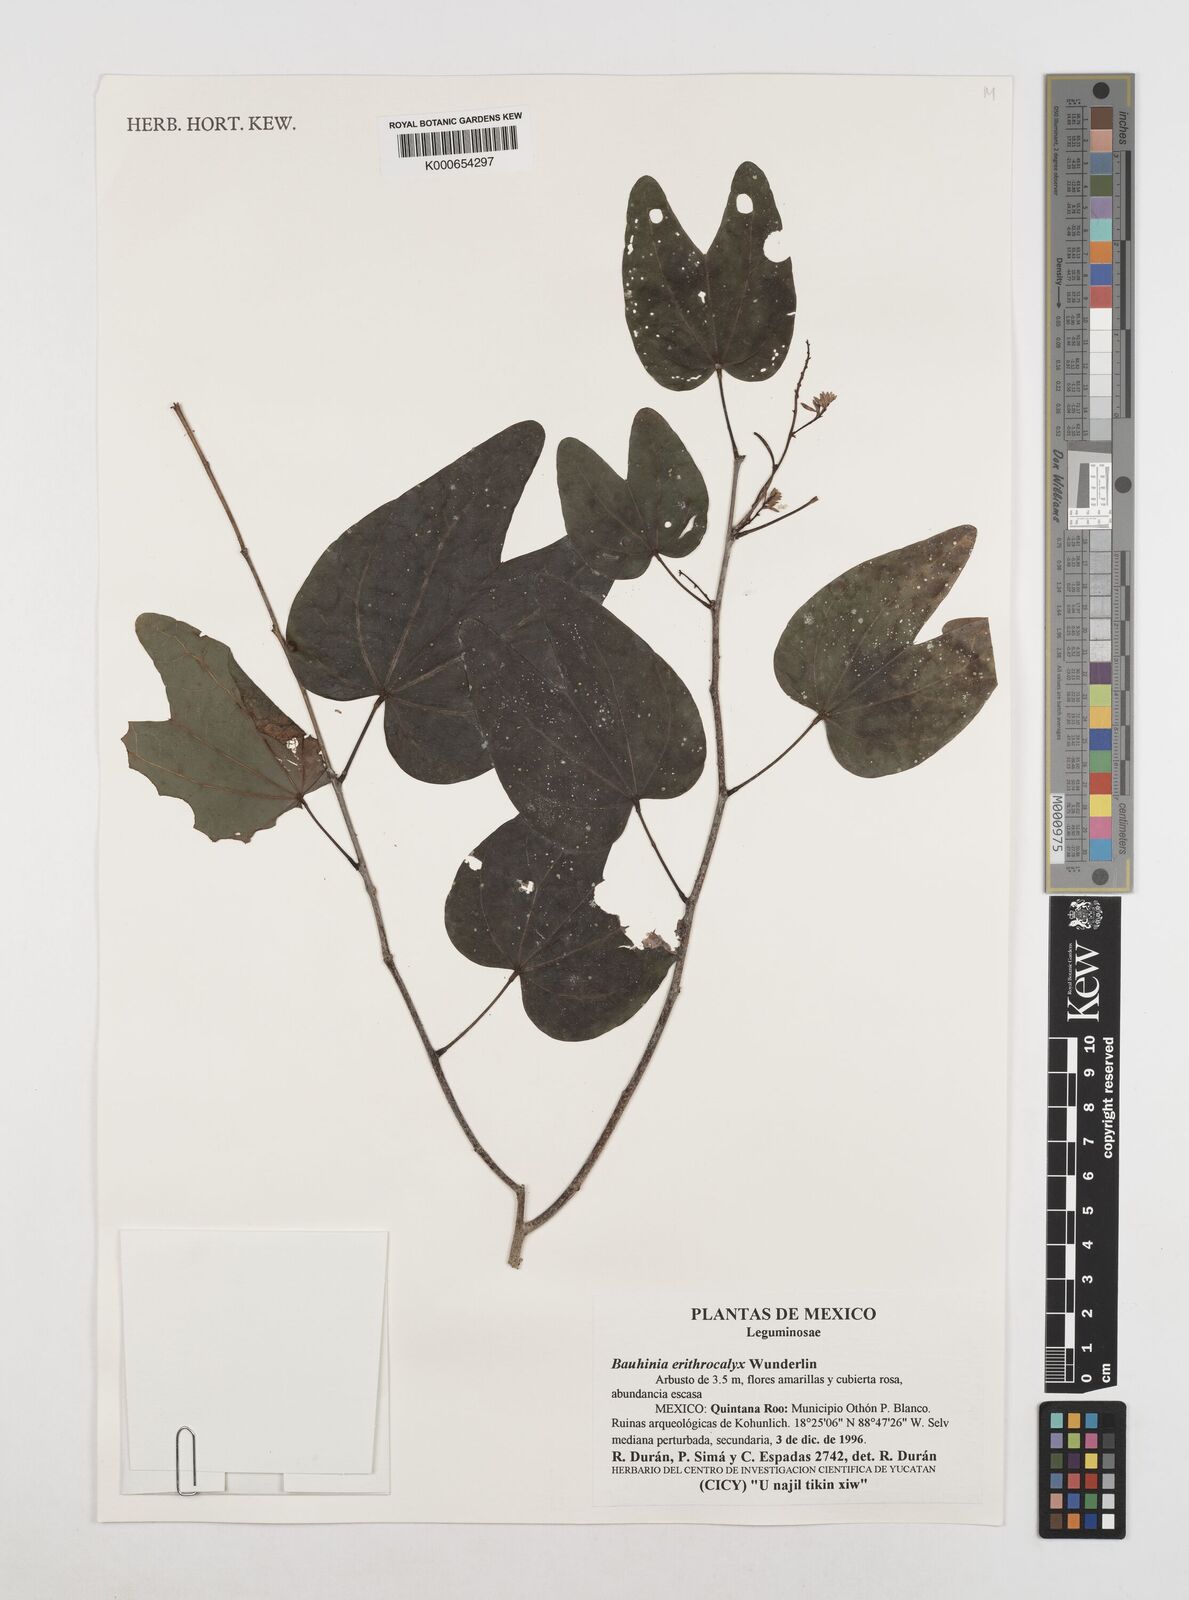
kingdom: Plantae
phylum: Tracheophyta
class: Magnoliopsida
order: Fabales
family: Fabaceae
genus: Bauhinia
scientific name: Bauhinia erythrocalyx
